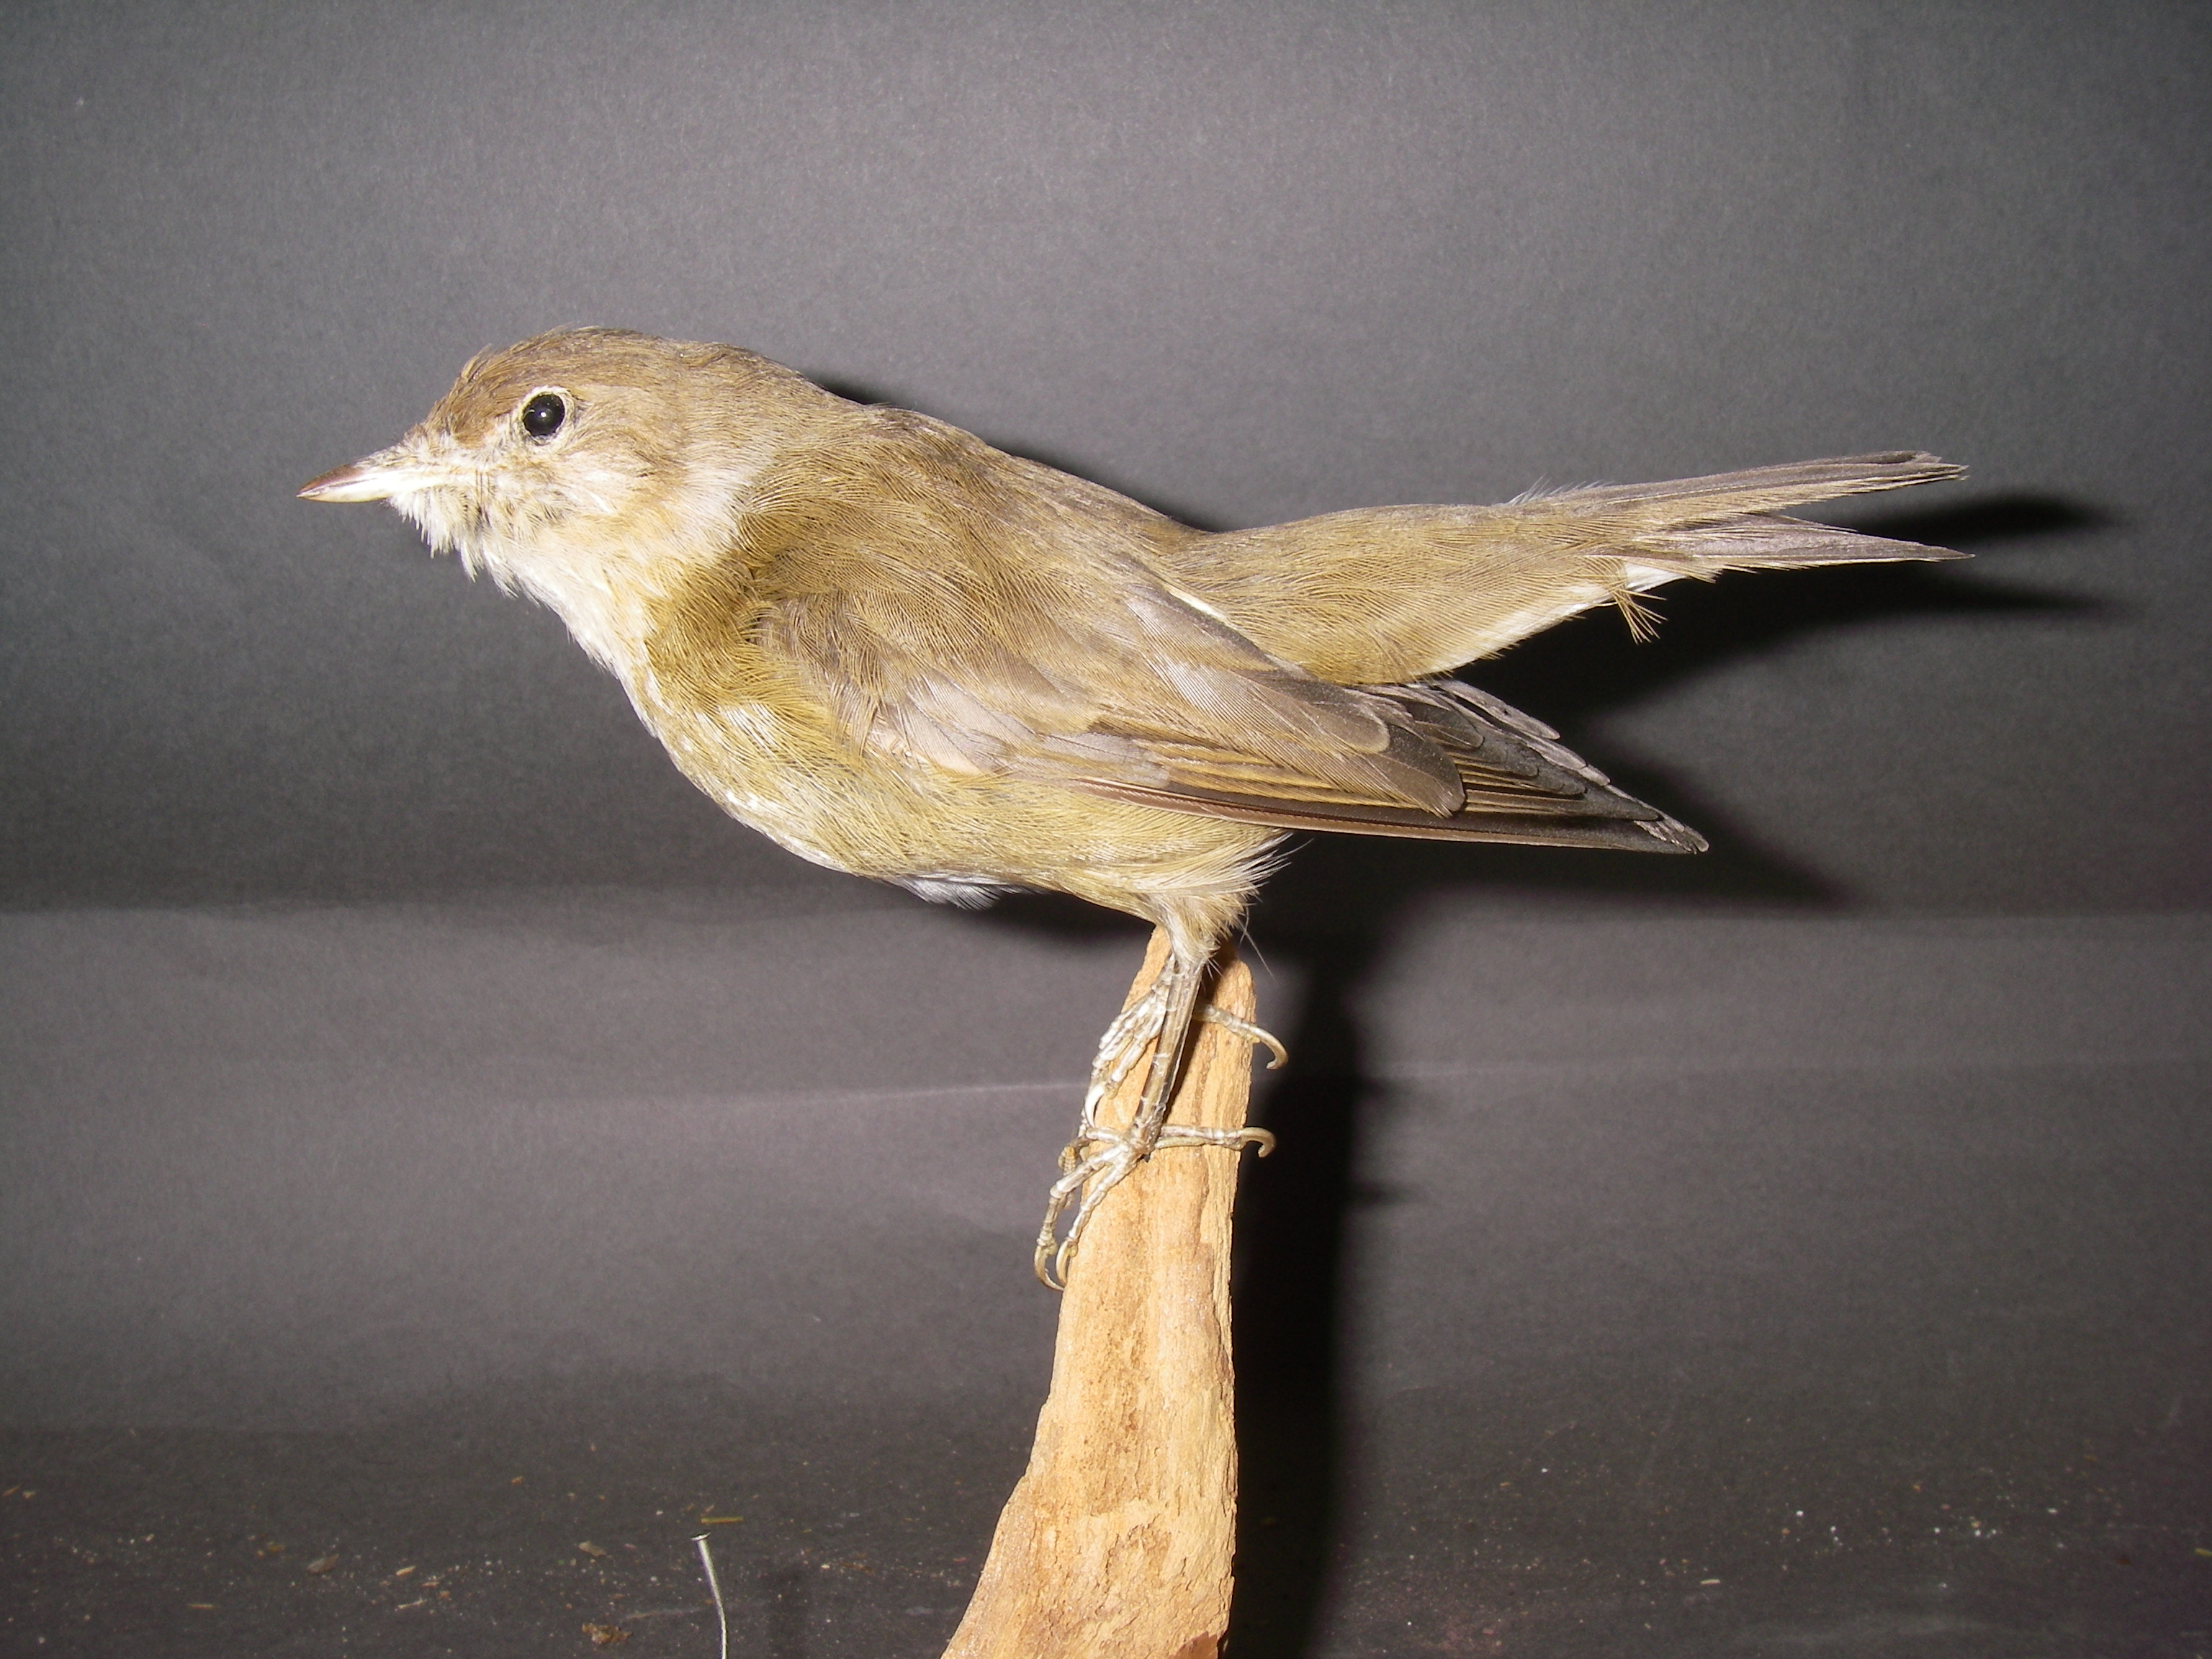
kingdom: Animalia
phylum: Chordata
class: Aves
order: Passeriformes
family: Sylviidae
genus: Sylvia
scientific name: Sylvia borin
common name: Garden warbler
